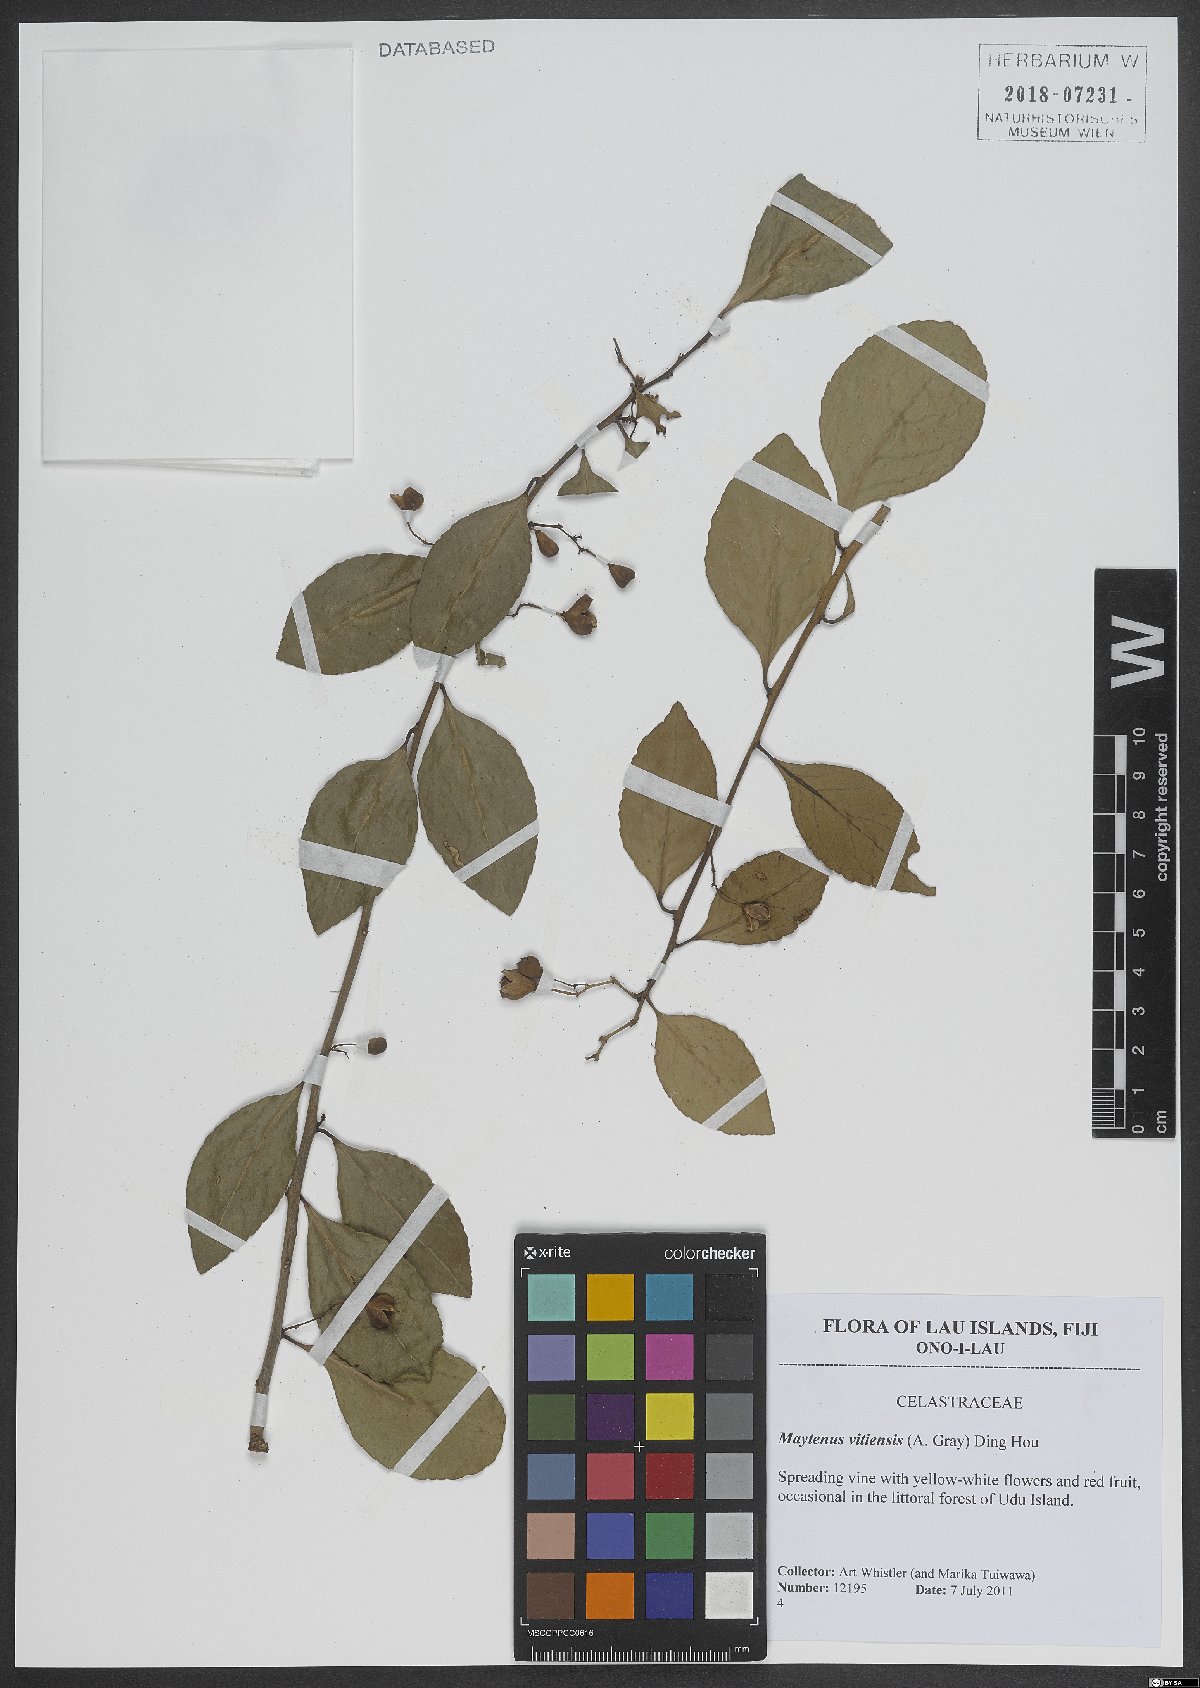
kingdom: Plantae
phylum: Tracheophyta
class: Magnoliopsida
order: Celastrales
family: Celastraceae
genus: Gymnosporia
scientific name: Gymnosporia vitiensis
